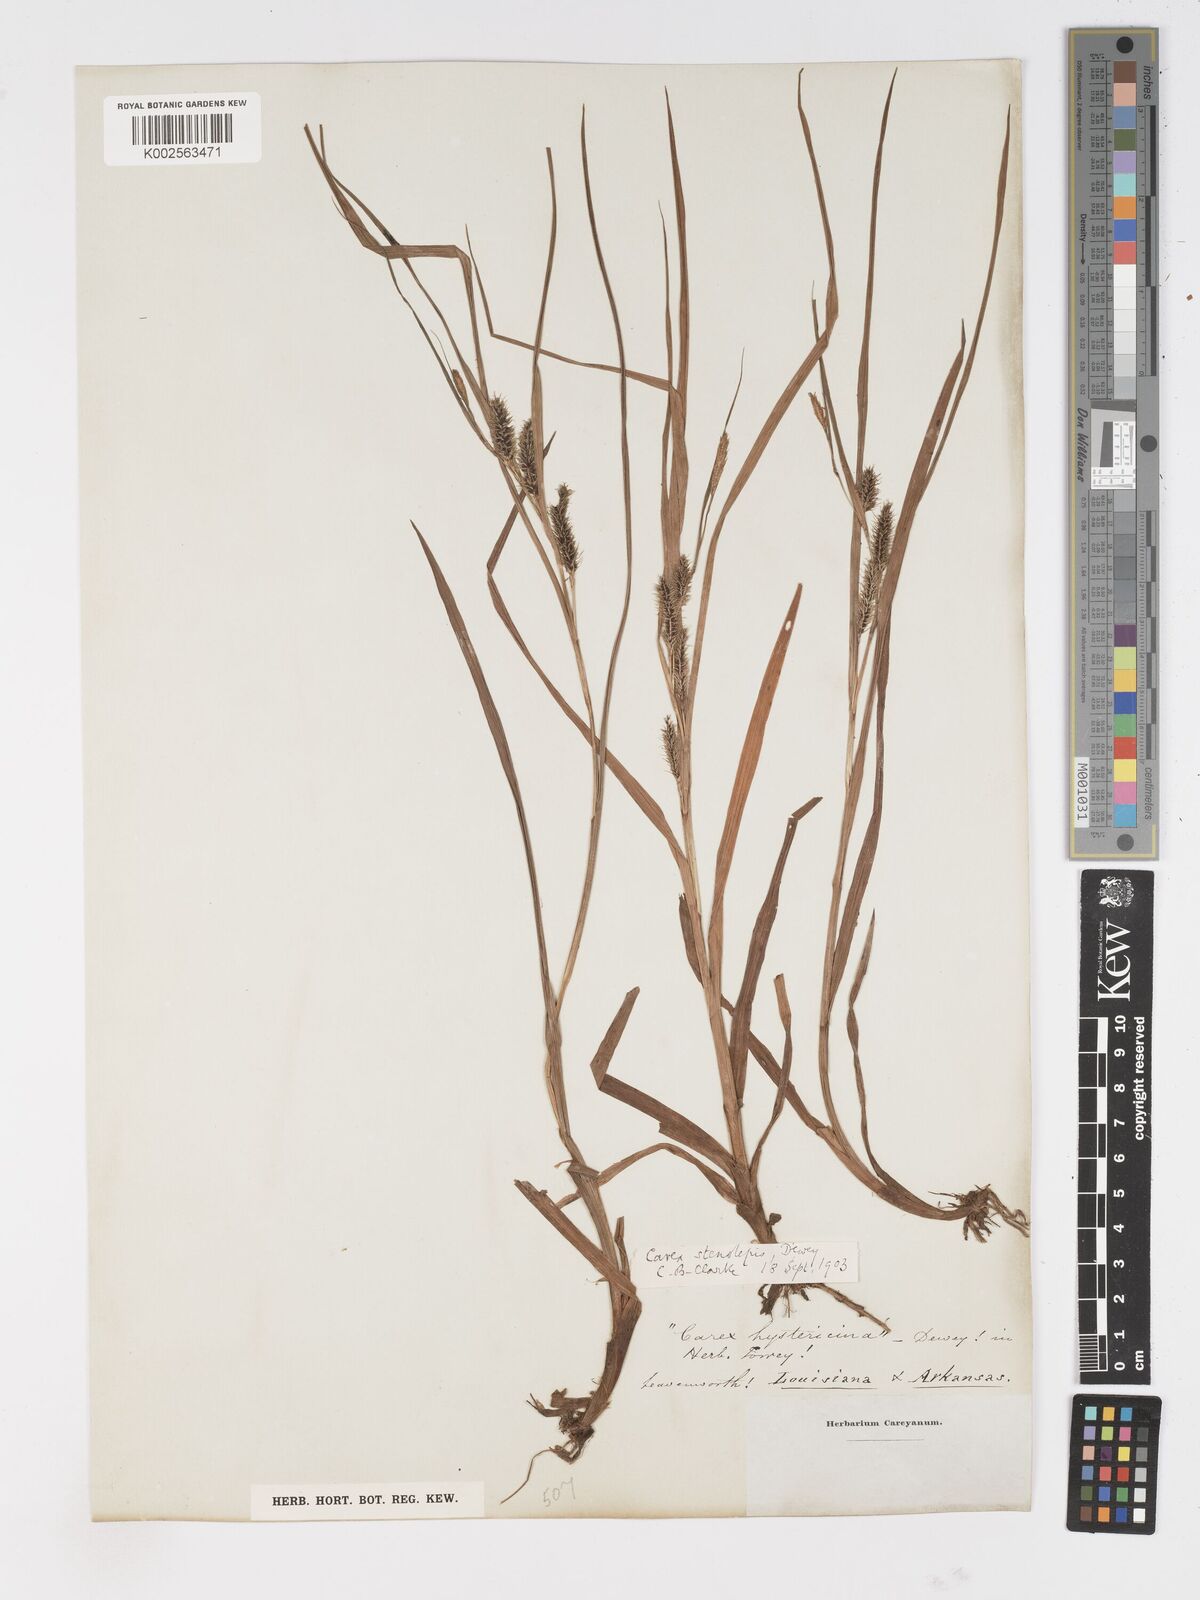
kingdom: Plantae
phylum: Tracheophyta
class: Liliopsida
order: Poales
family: Cyperaceae
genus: Carex
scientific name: Carex frankii
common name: Frank's sedge
